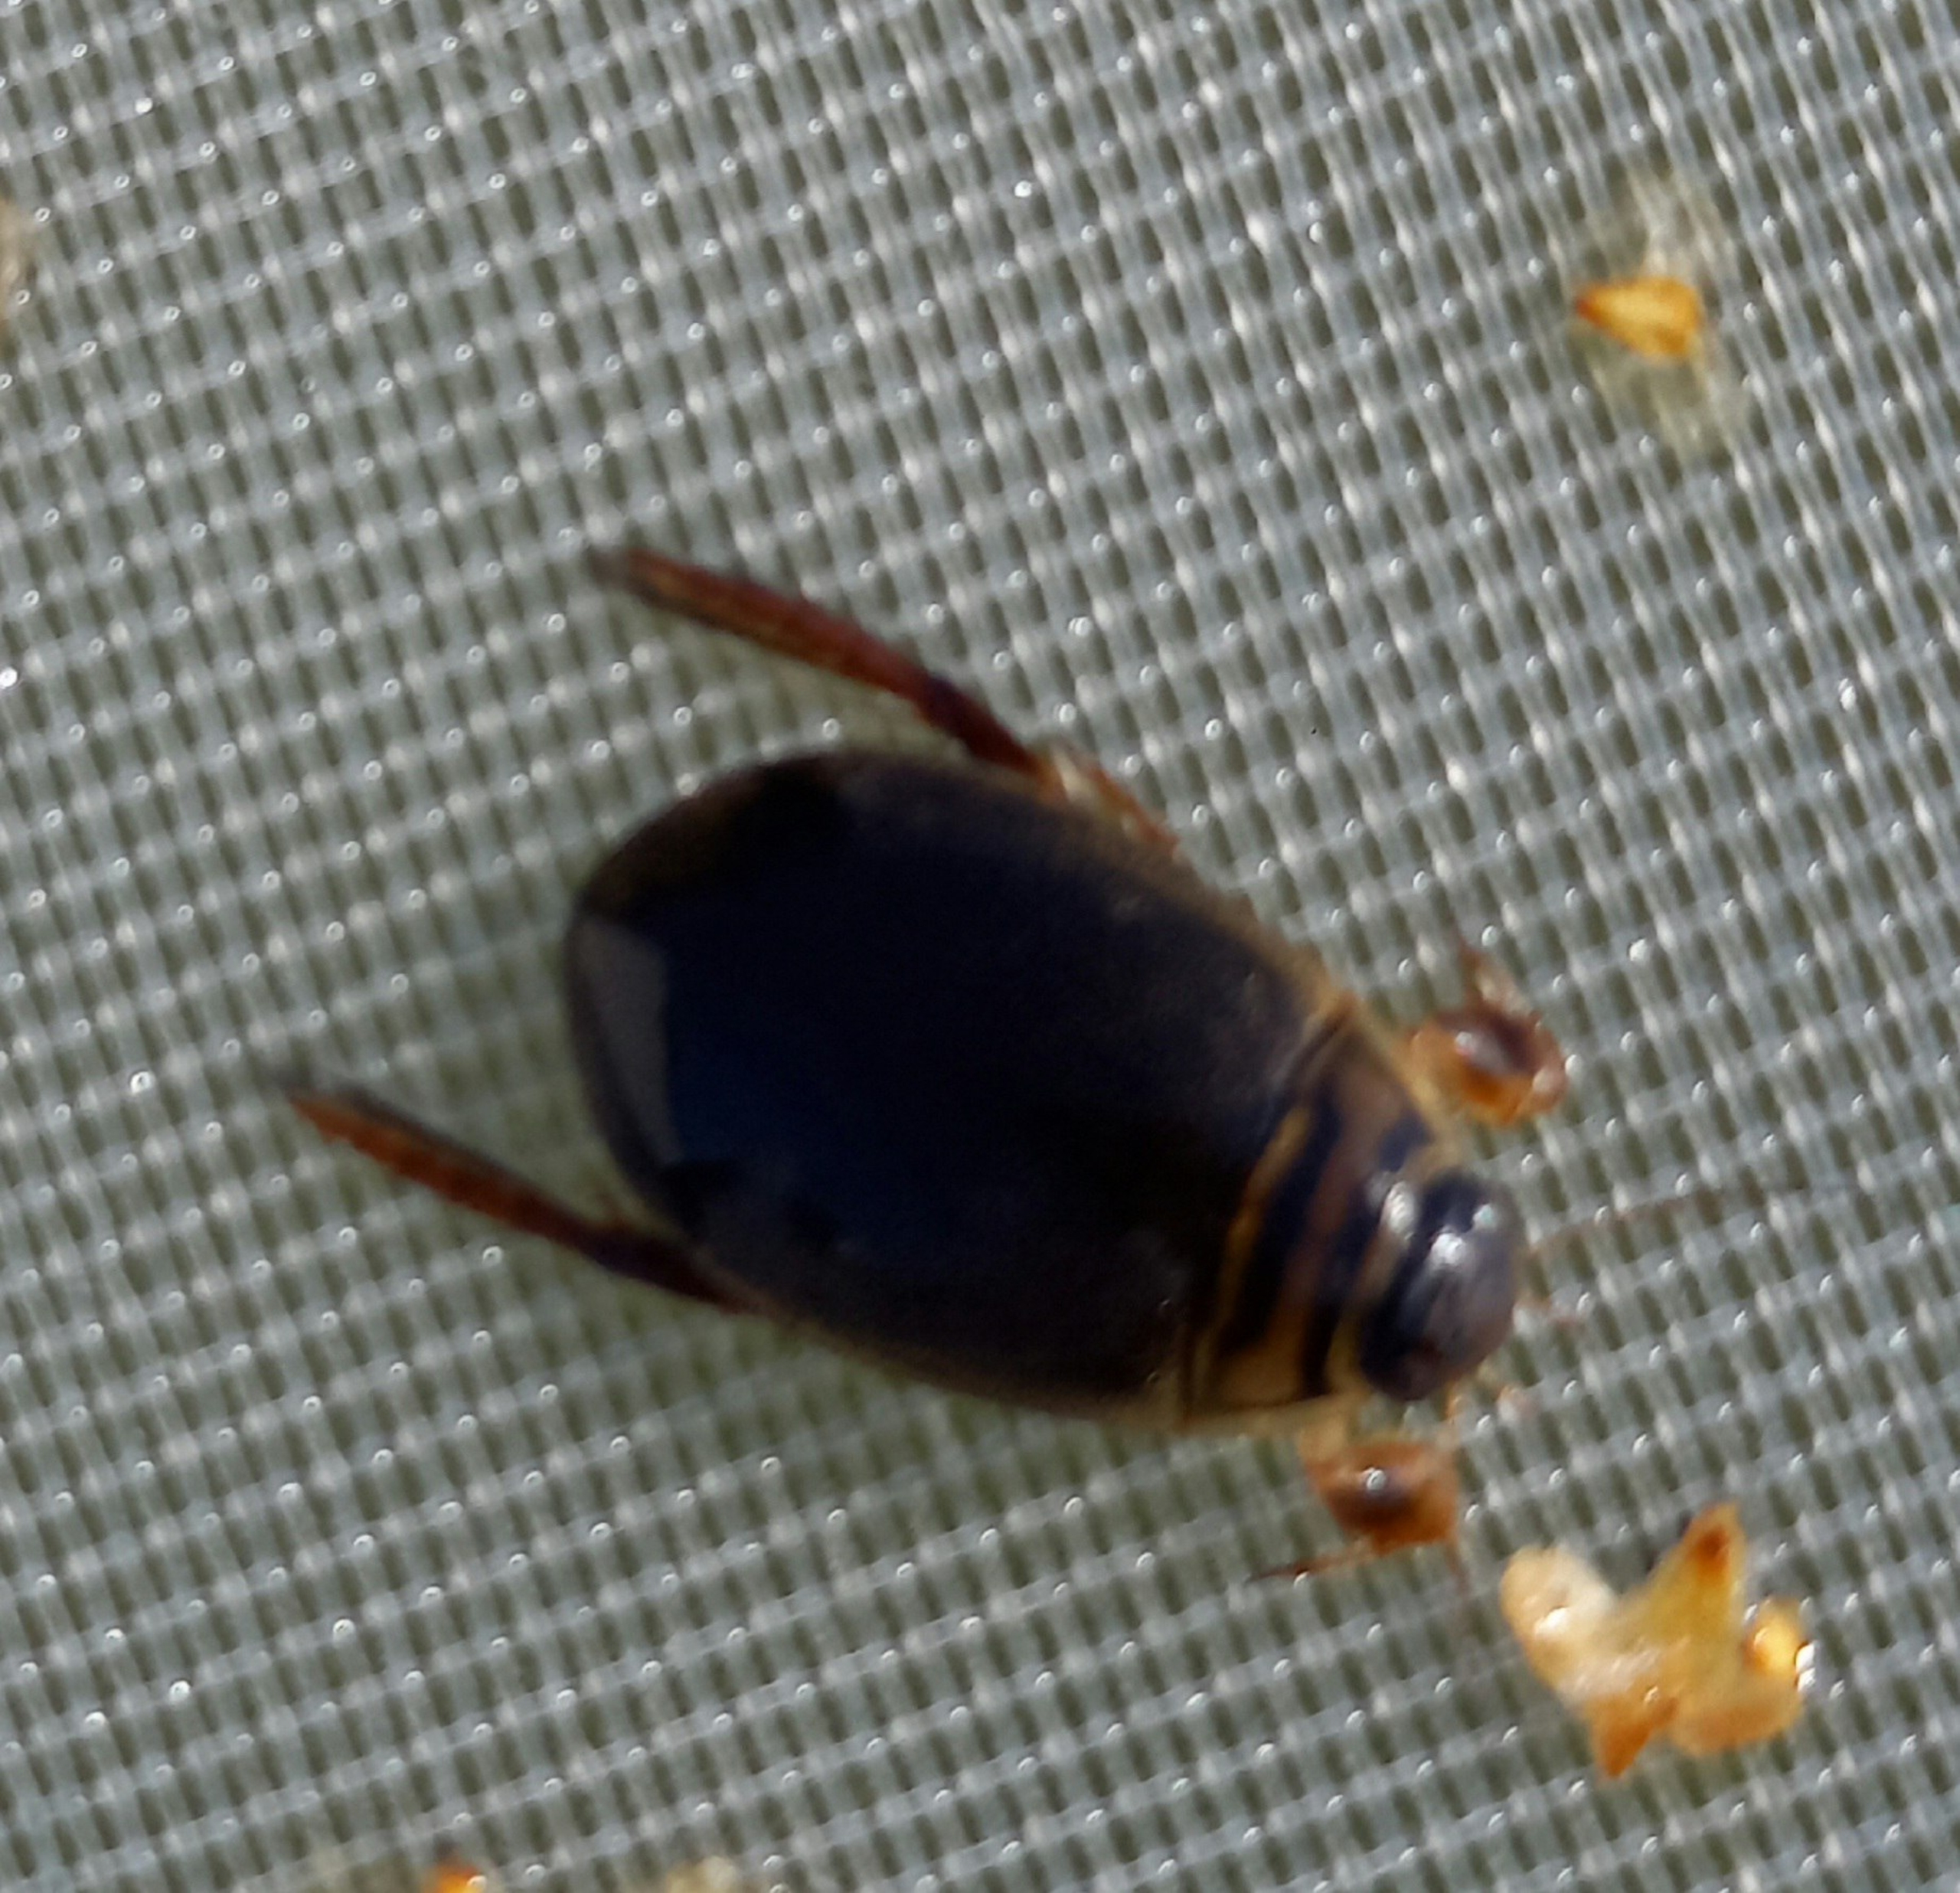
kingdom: Animalia
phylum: Arthropoda
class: Insecta
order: Coleoptera
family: Dytiscidae
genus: Acilius
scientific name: Acilius canaliculatus
